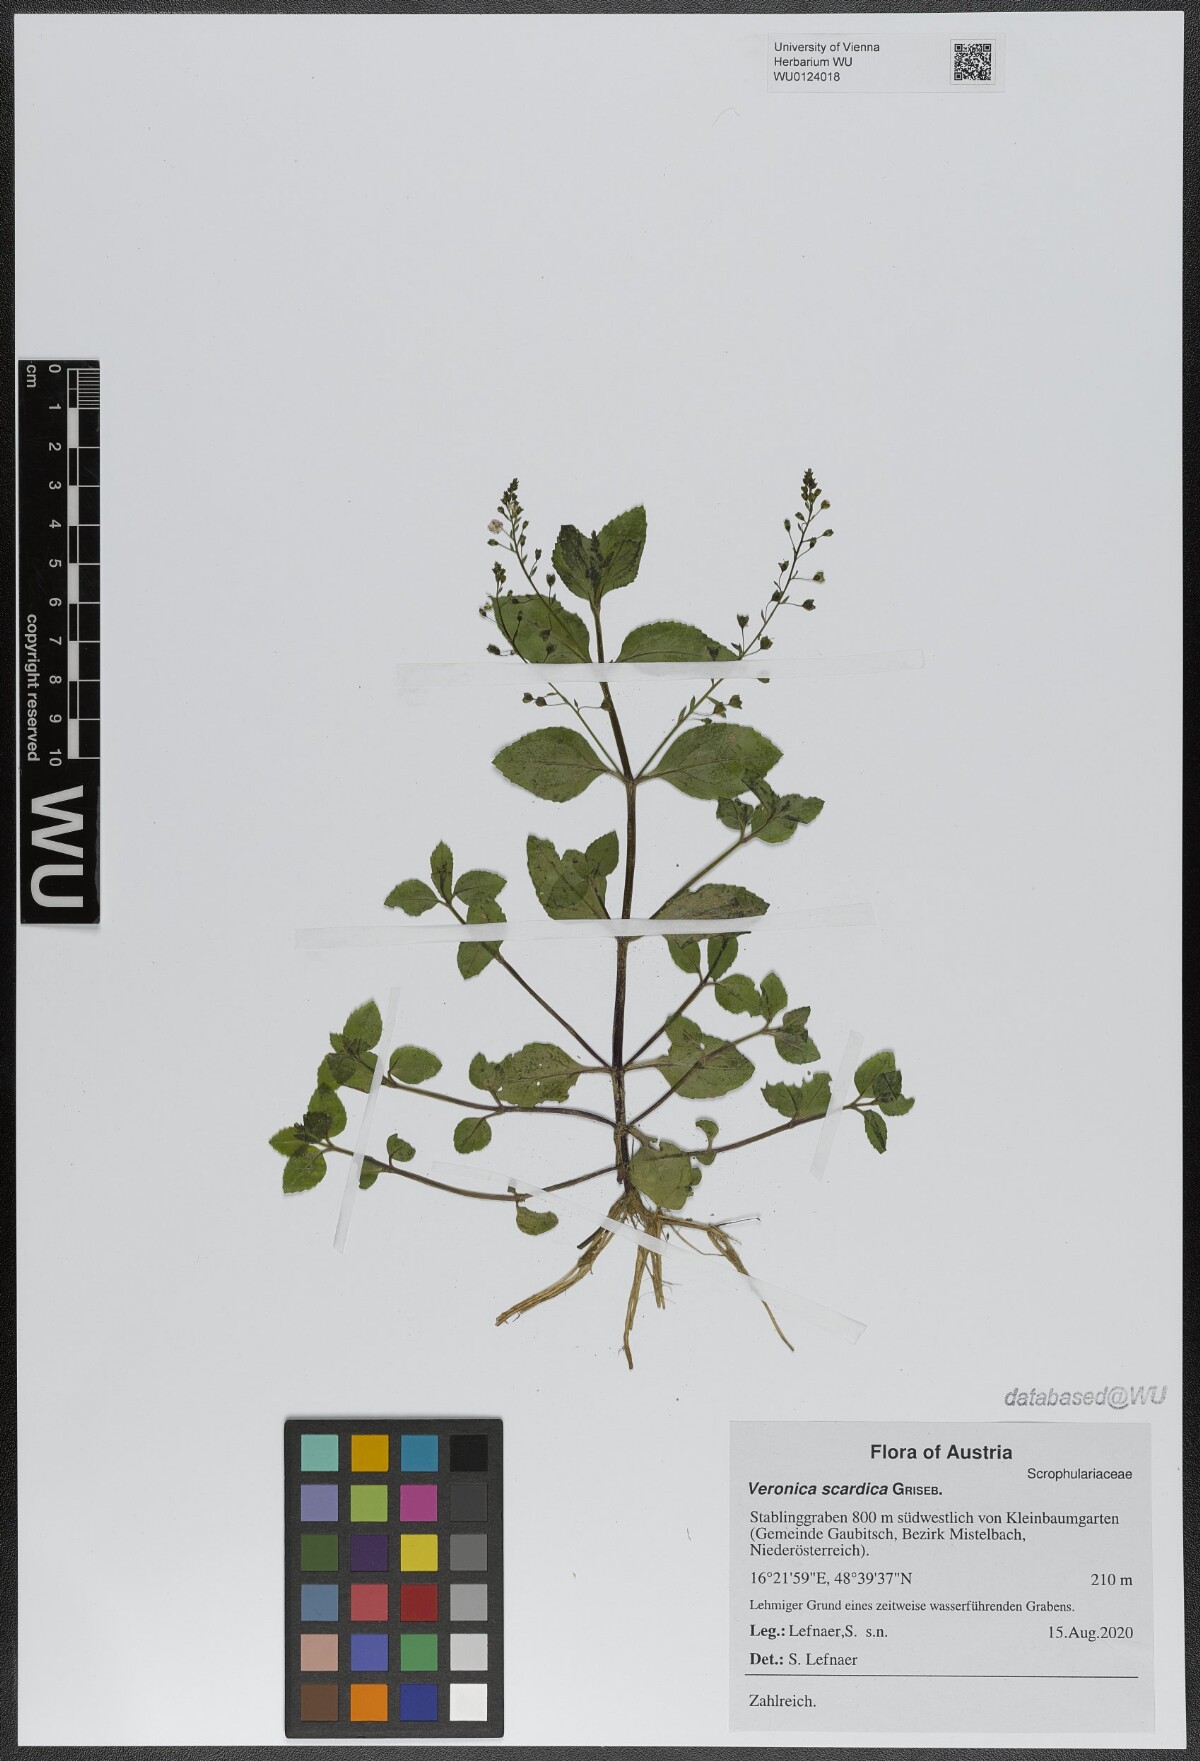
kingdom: Plantae
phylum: Tracheophyta
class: Magnoliopsida
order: Lamiales
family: Plantaginaceae
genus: Veronica
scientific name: Veronica scardica
